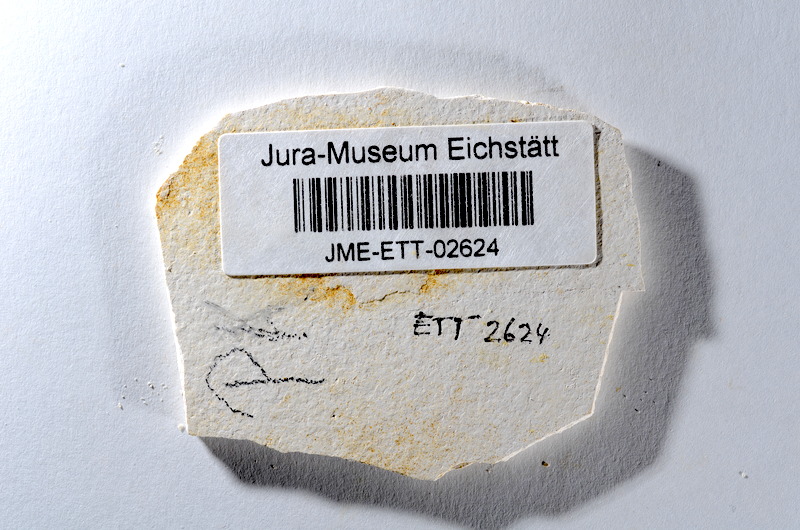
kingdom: Animalia
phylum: Chordata
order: Salmoniformes
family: Orthogonikleithridae
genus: Orthogonikleithrus
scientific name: Orthogonikleithrus hoelli
